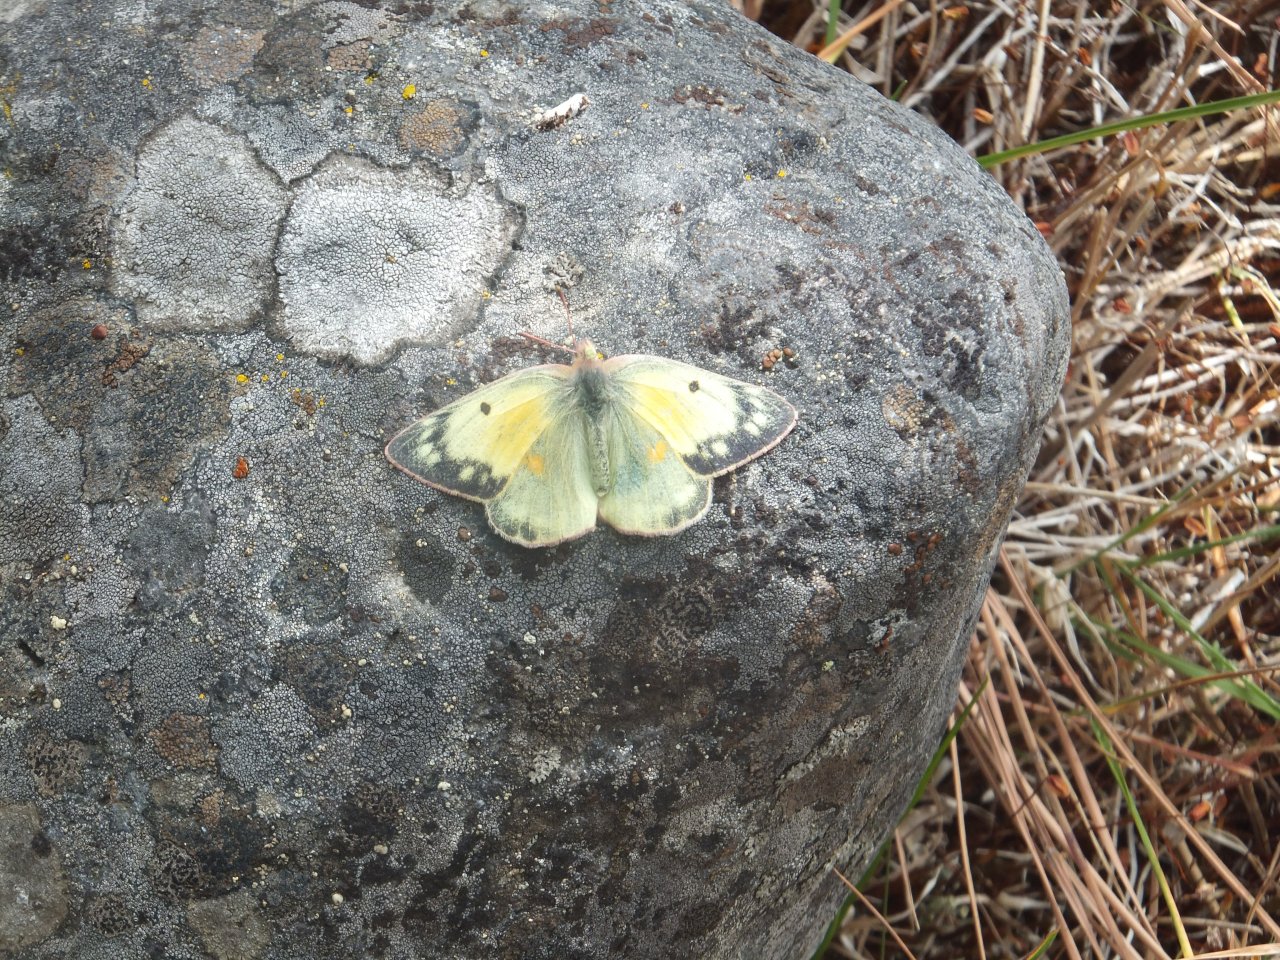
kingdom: Animalia
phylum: Arthropoda
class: Insecta
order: Lepidoptera
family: Pieridae
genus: Colias
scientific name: Colias eurytheme
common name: Orange Sulphur
